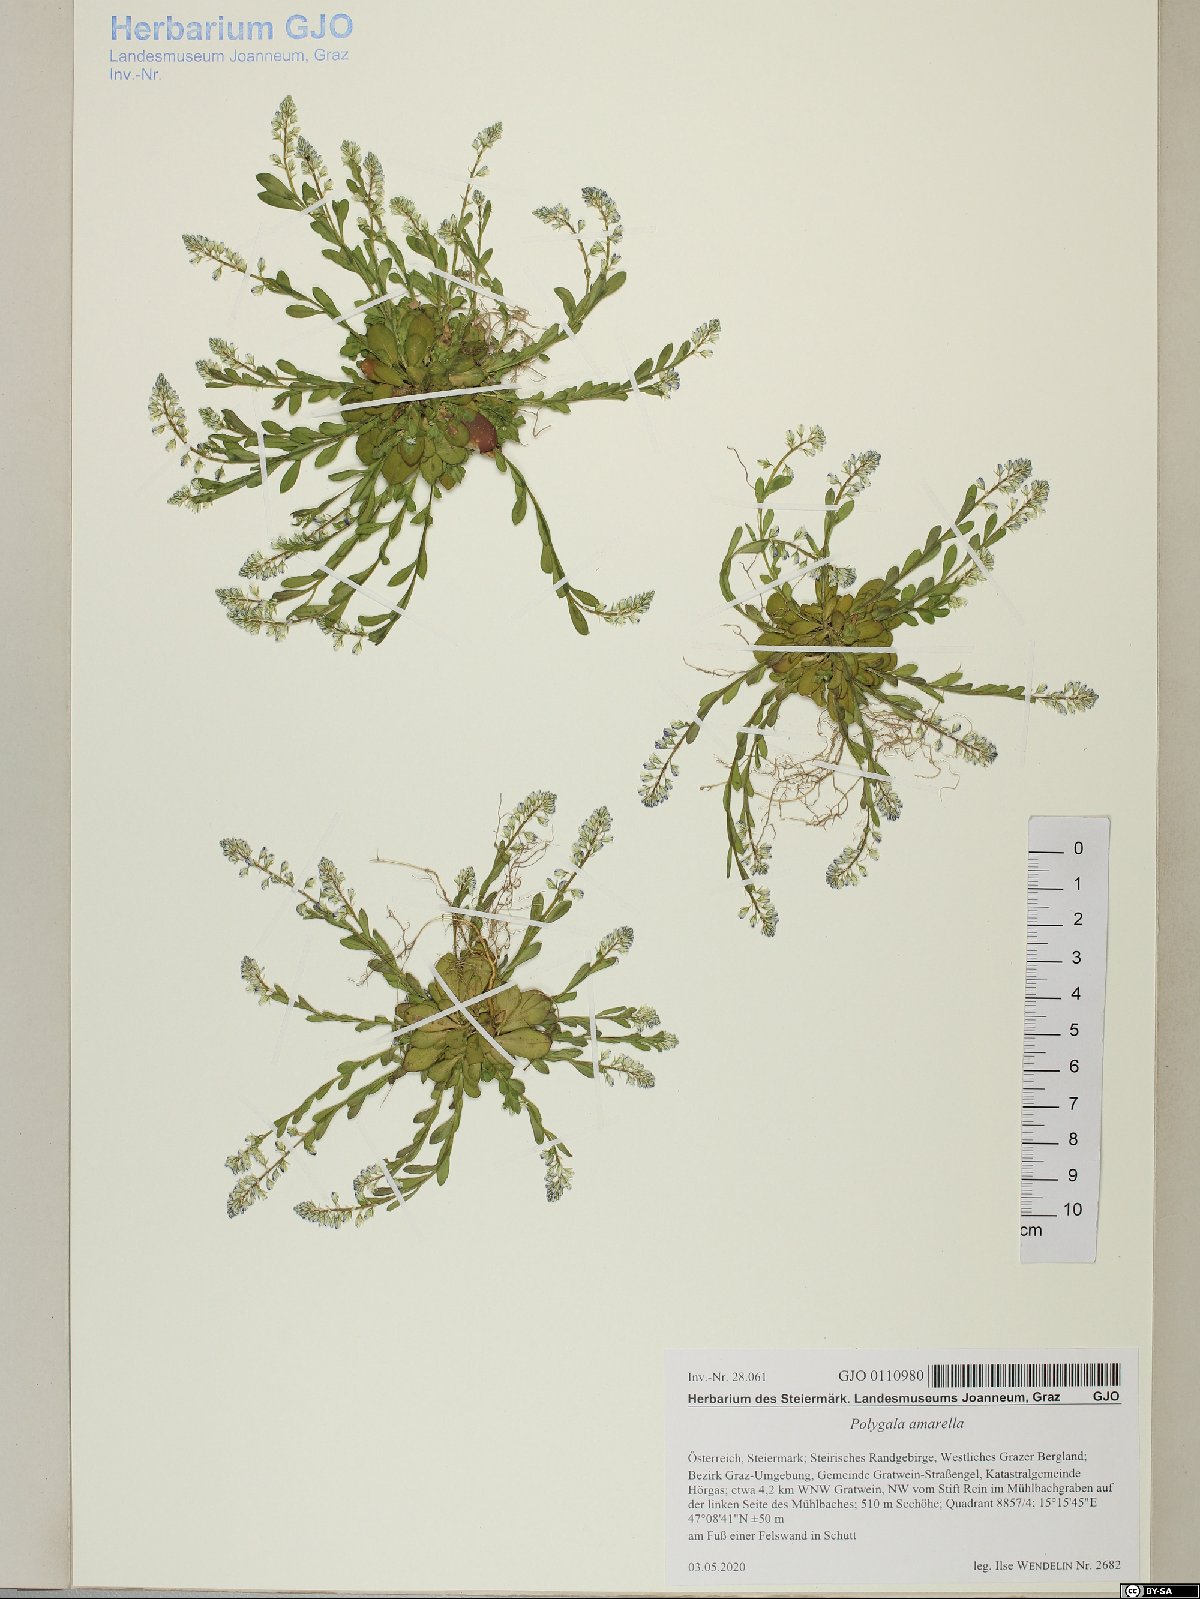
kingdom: Plantae
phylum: Tracheophyta
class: Magnoliopsida
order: Fabales
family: Polygalaceae
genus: Polygala
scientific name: Polygala amarella
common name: Dwarf milkwort
